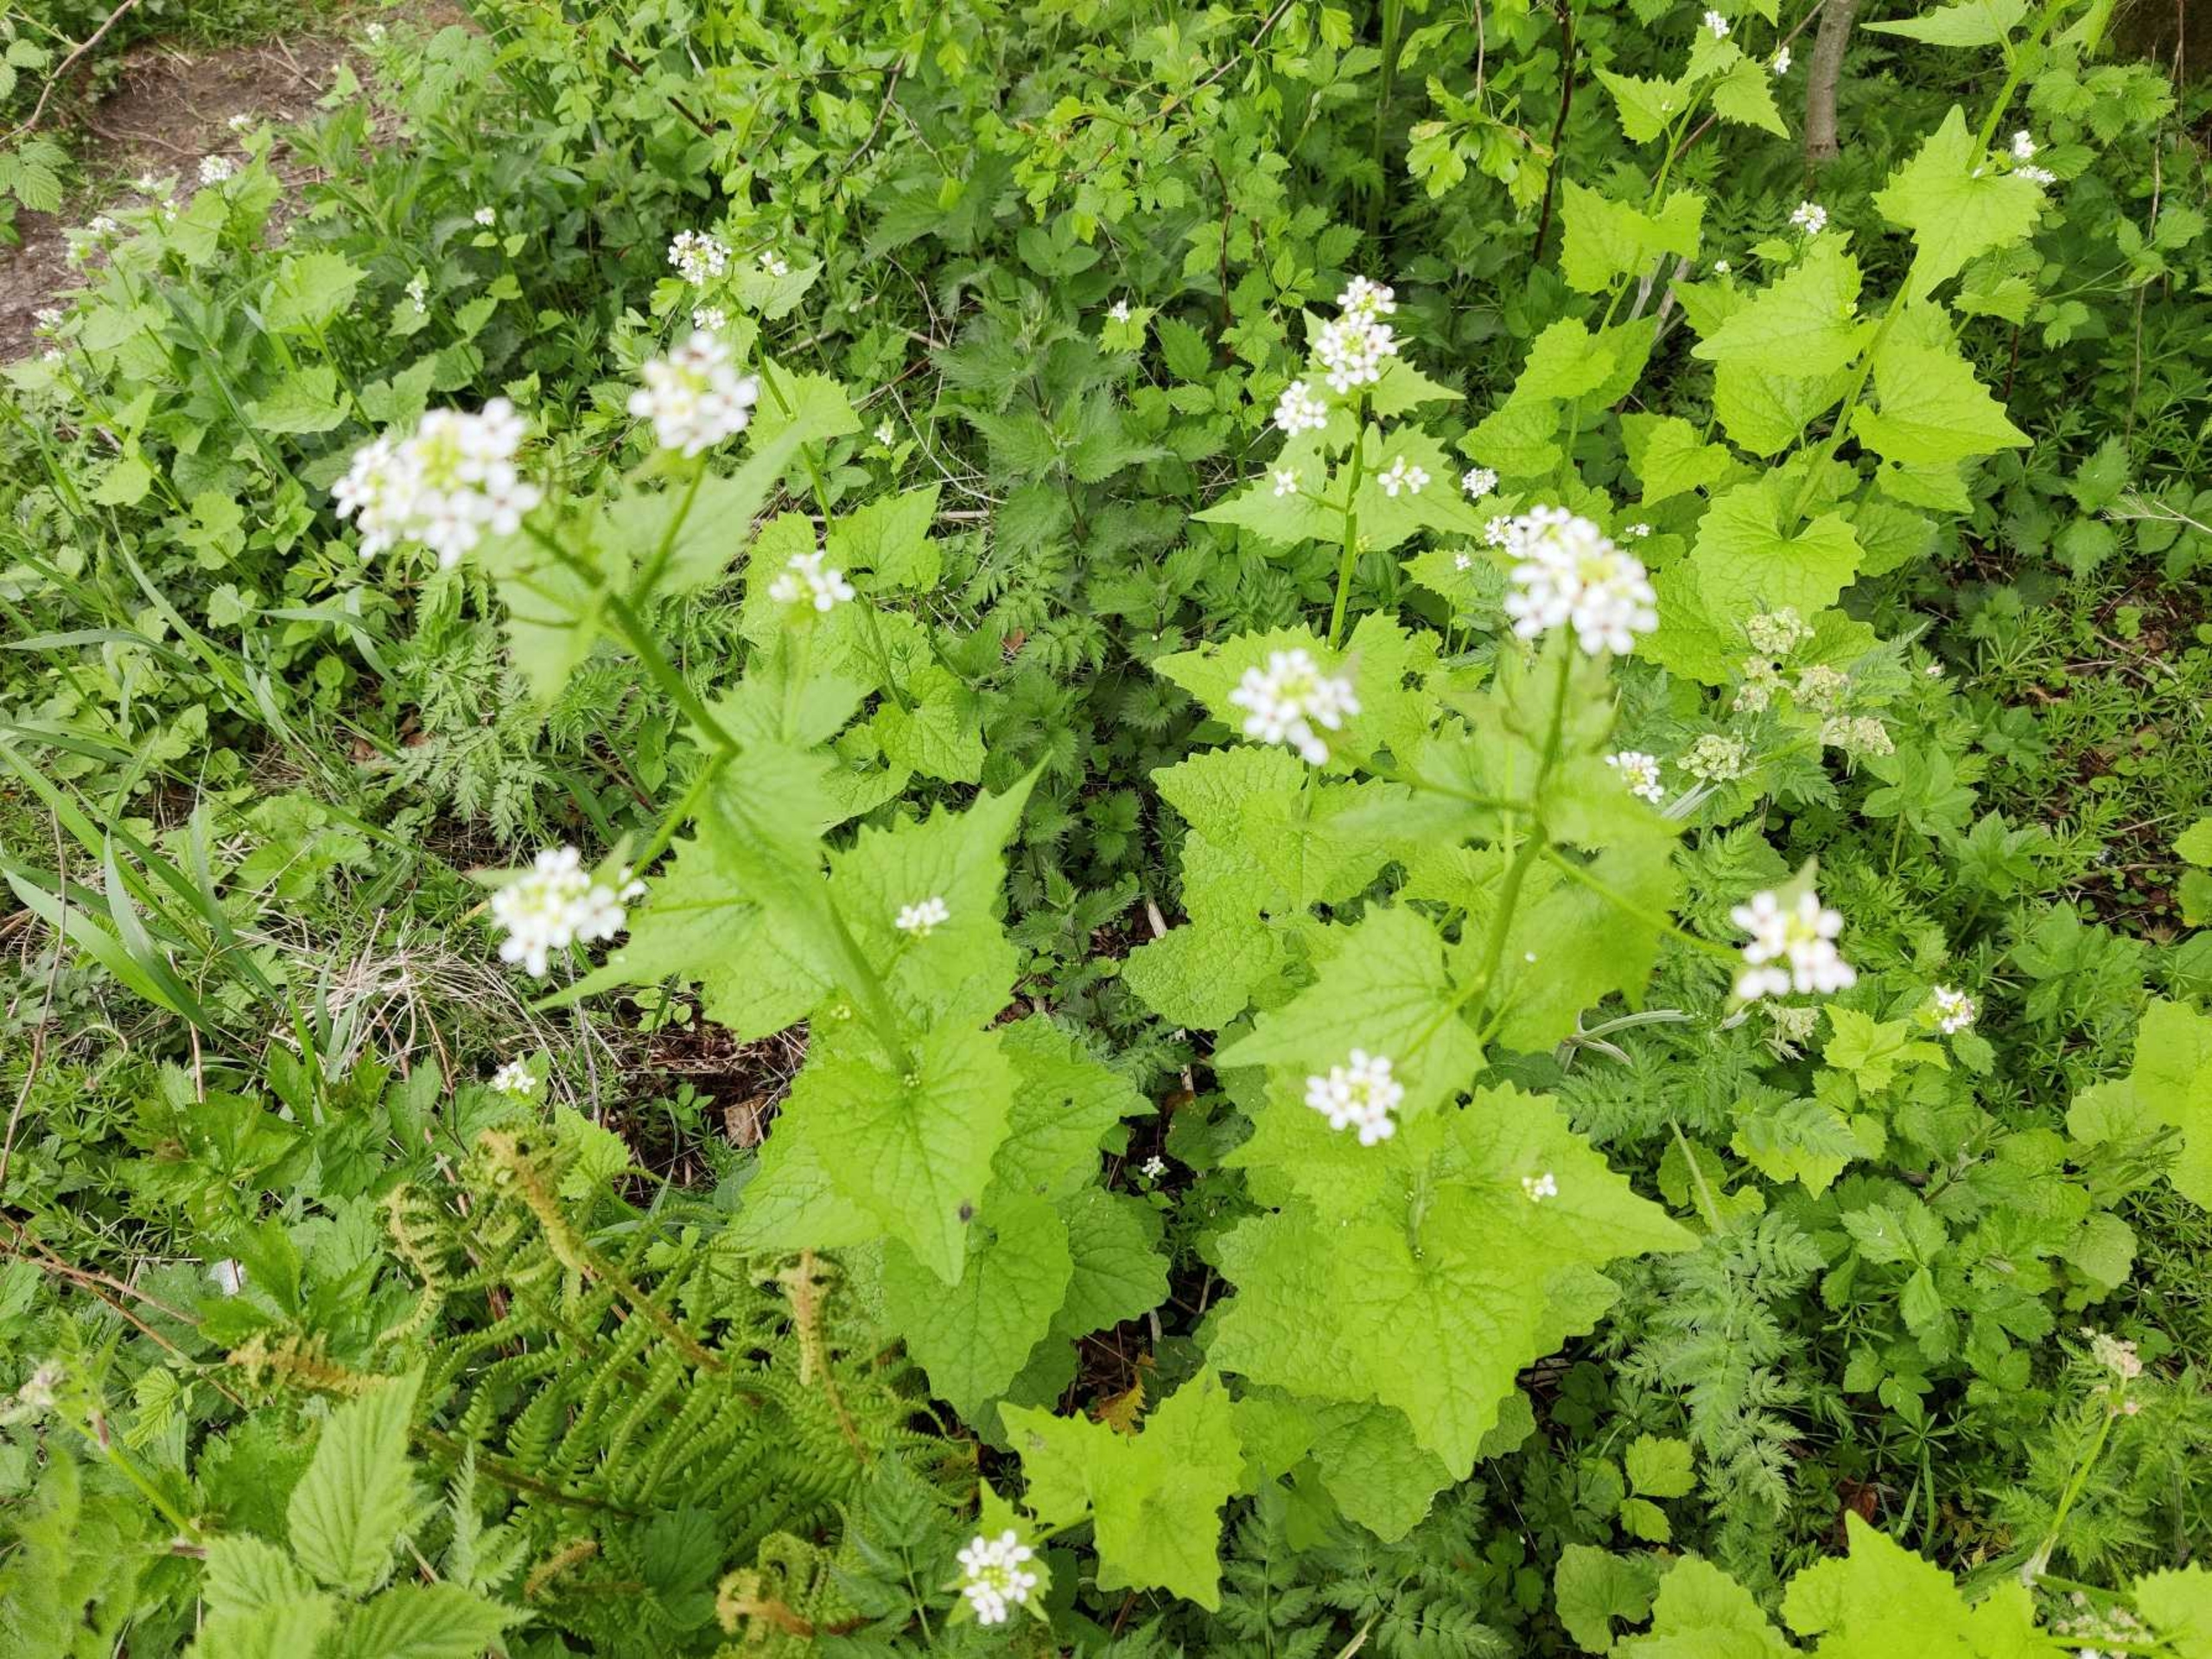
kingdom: Plantae
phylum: Tracheophyta
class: Magnoliopsida
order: Brassicales
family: Brassicaceae
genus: Alliaria
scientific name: Alliaria petiolata
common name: Løgkarse
